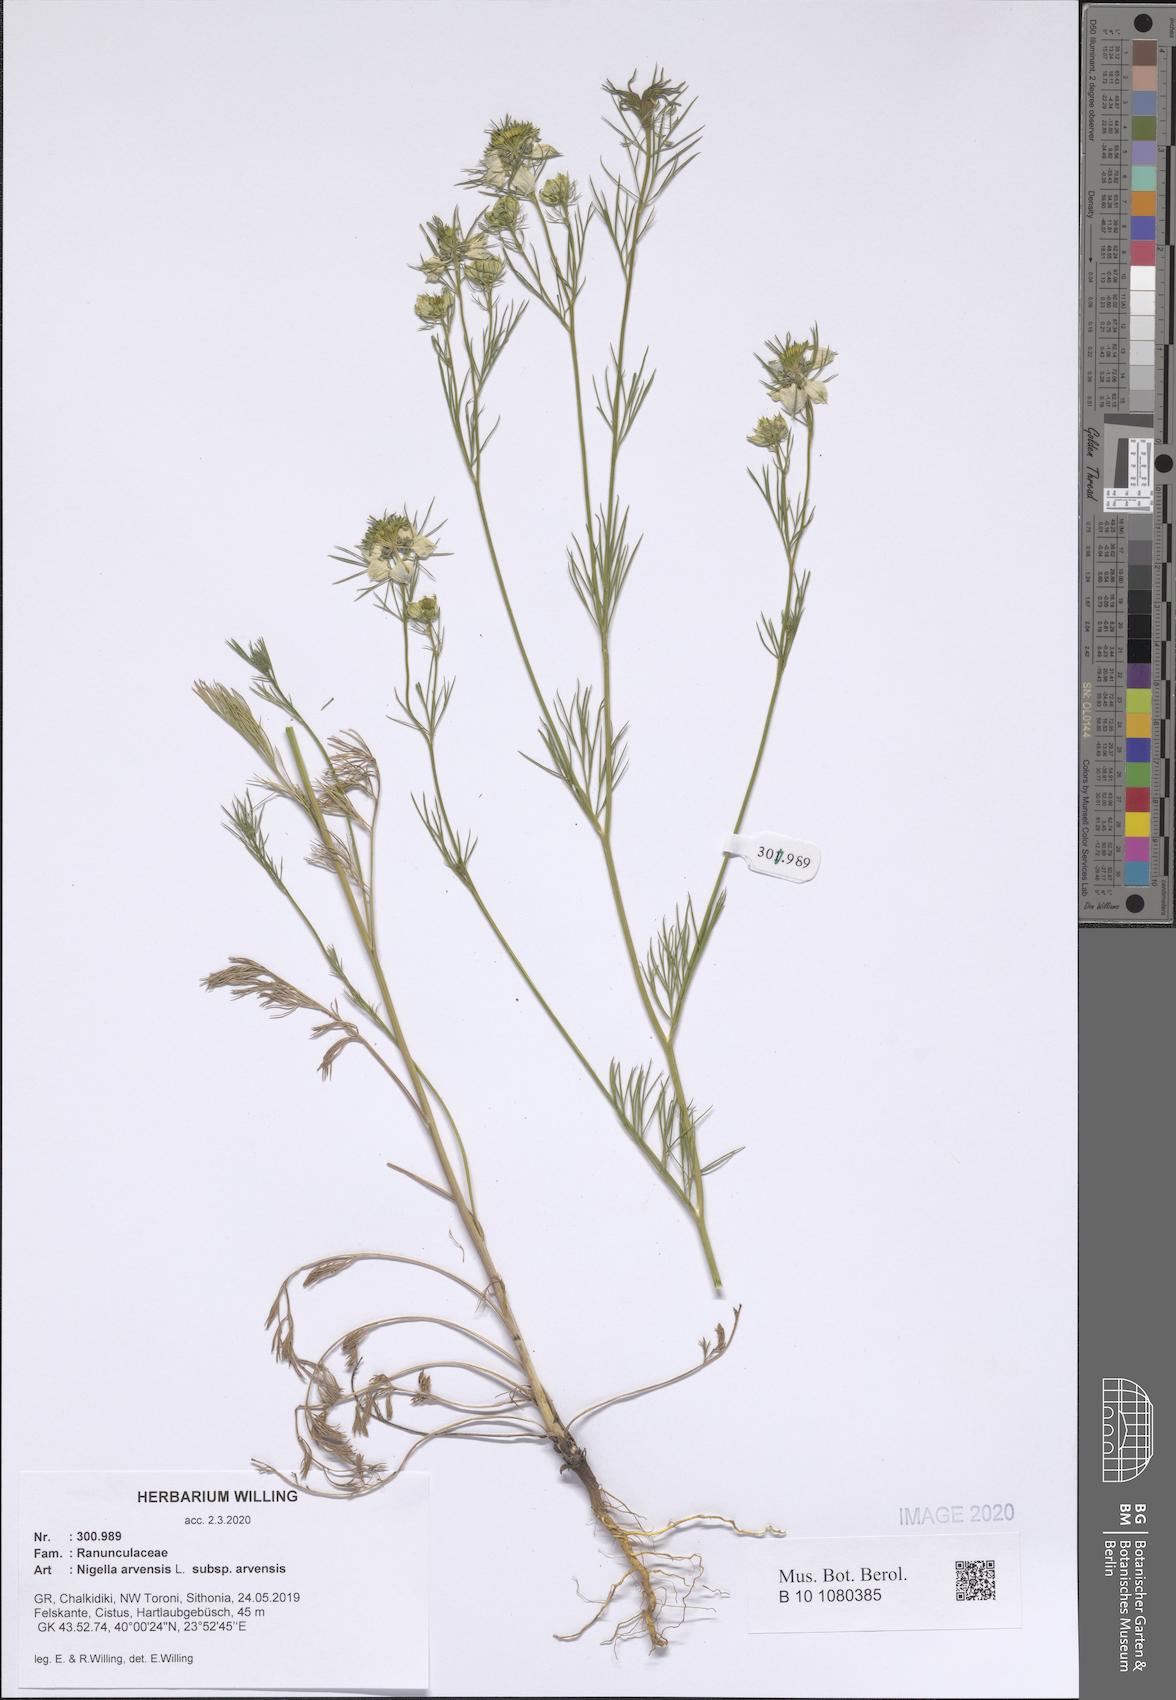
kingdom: Plantae
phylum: Tracheophyta
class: Magnoliopsida
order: Ranunculales
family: Ranunculaceae
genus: Nigella
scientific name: Nigella arvensis
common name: Wild fennel-flower
